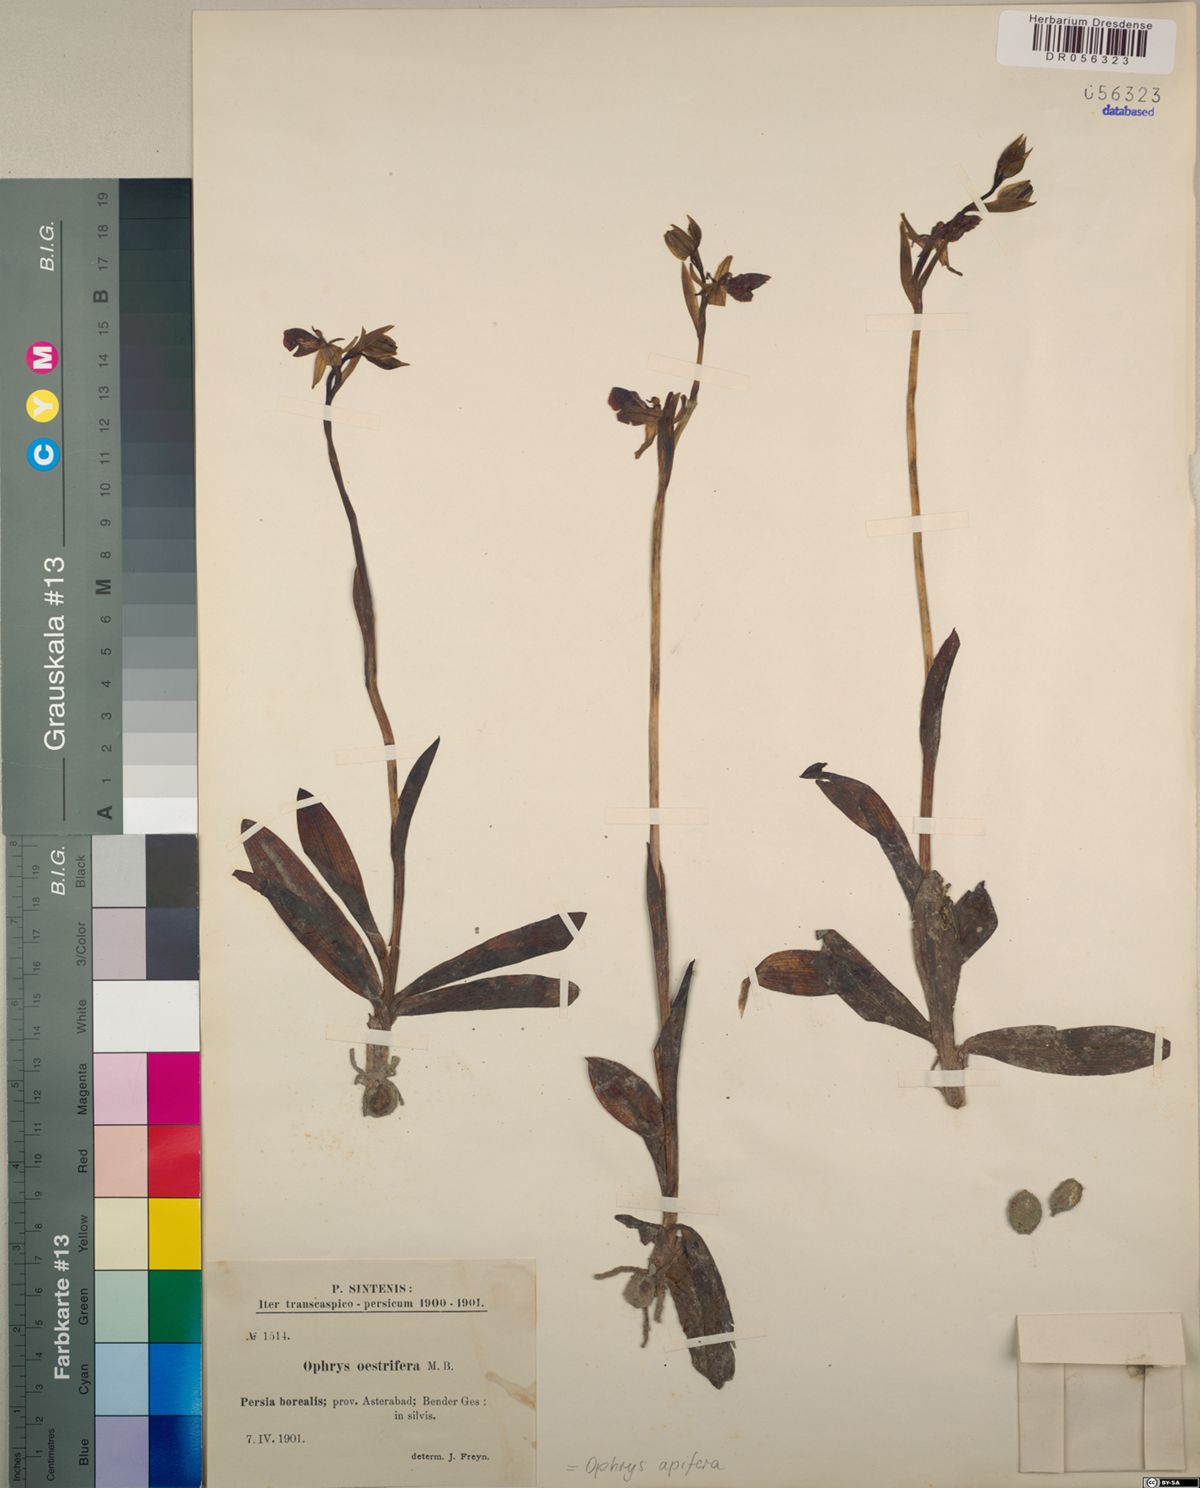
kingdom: Plantae
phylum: Tracheophyta
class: Liliopsida
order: Asparagales
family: Orchidaceae
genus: Ophrys
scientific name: Ophrys apifera
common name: Bee orchid
